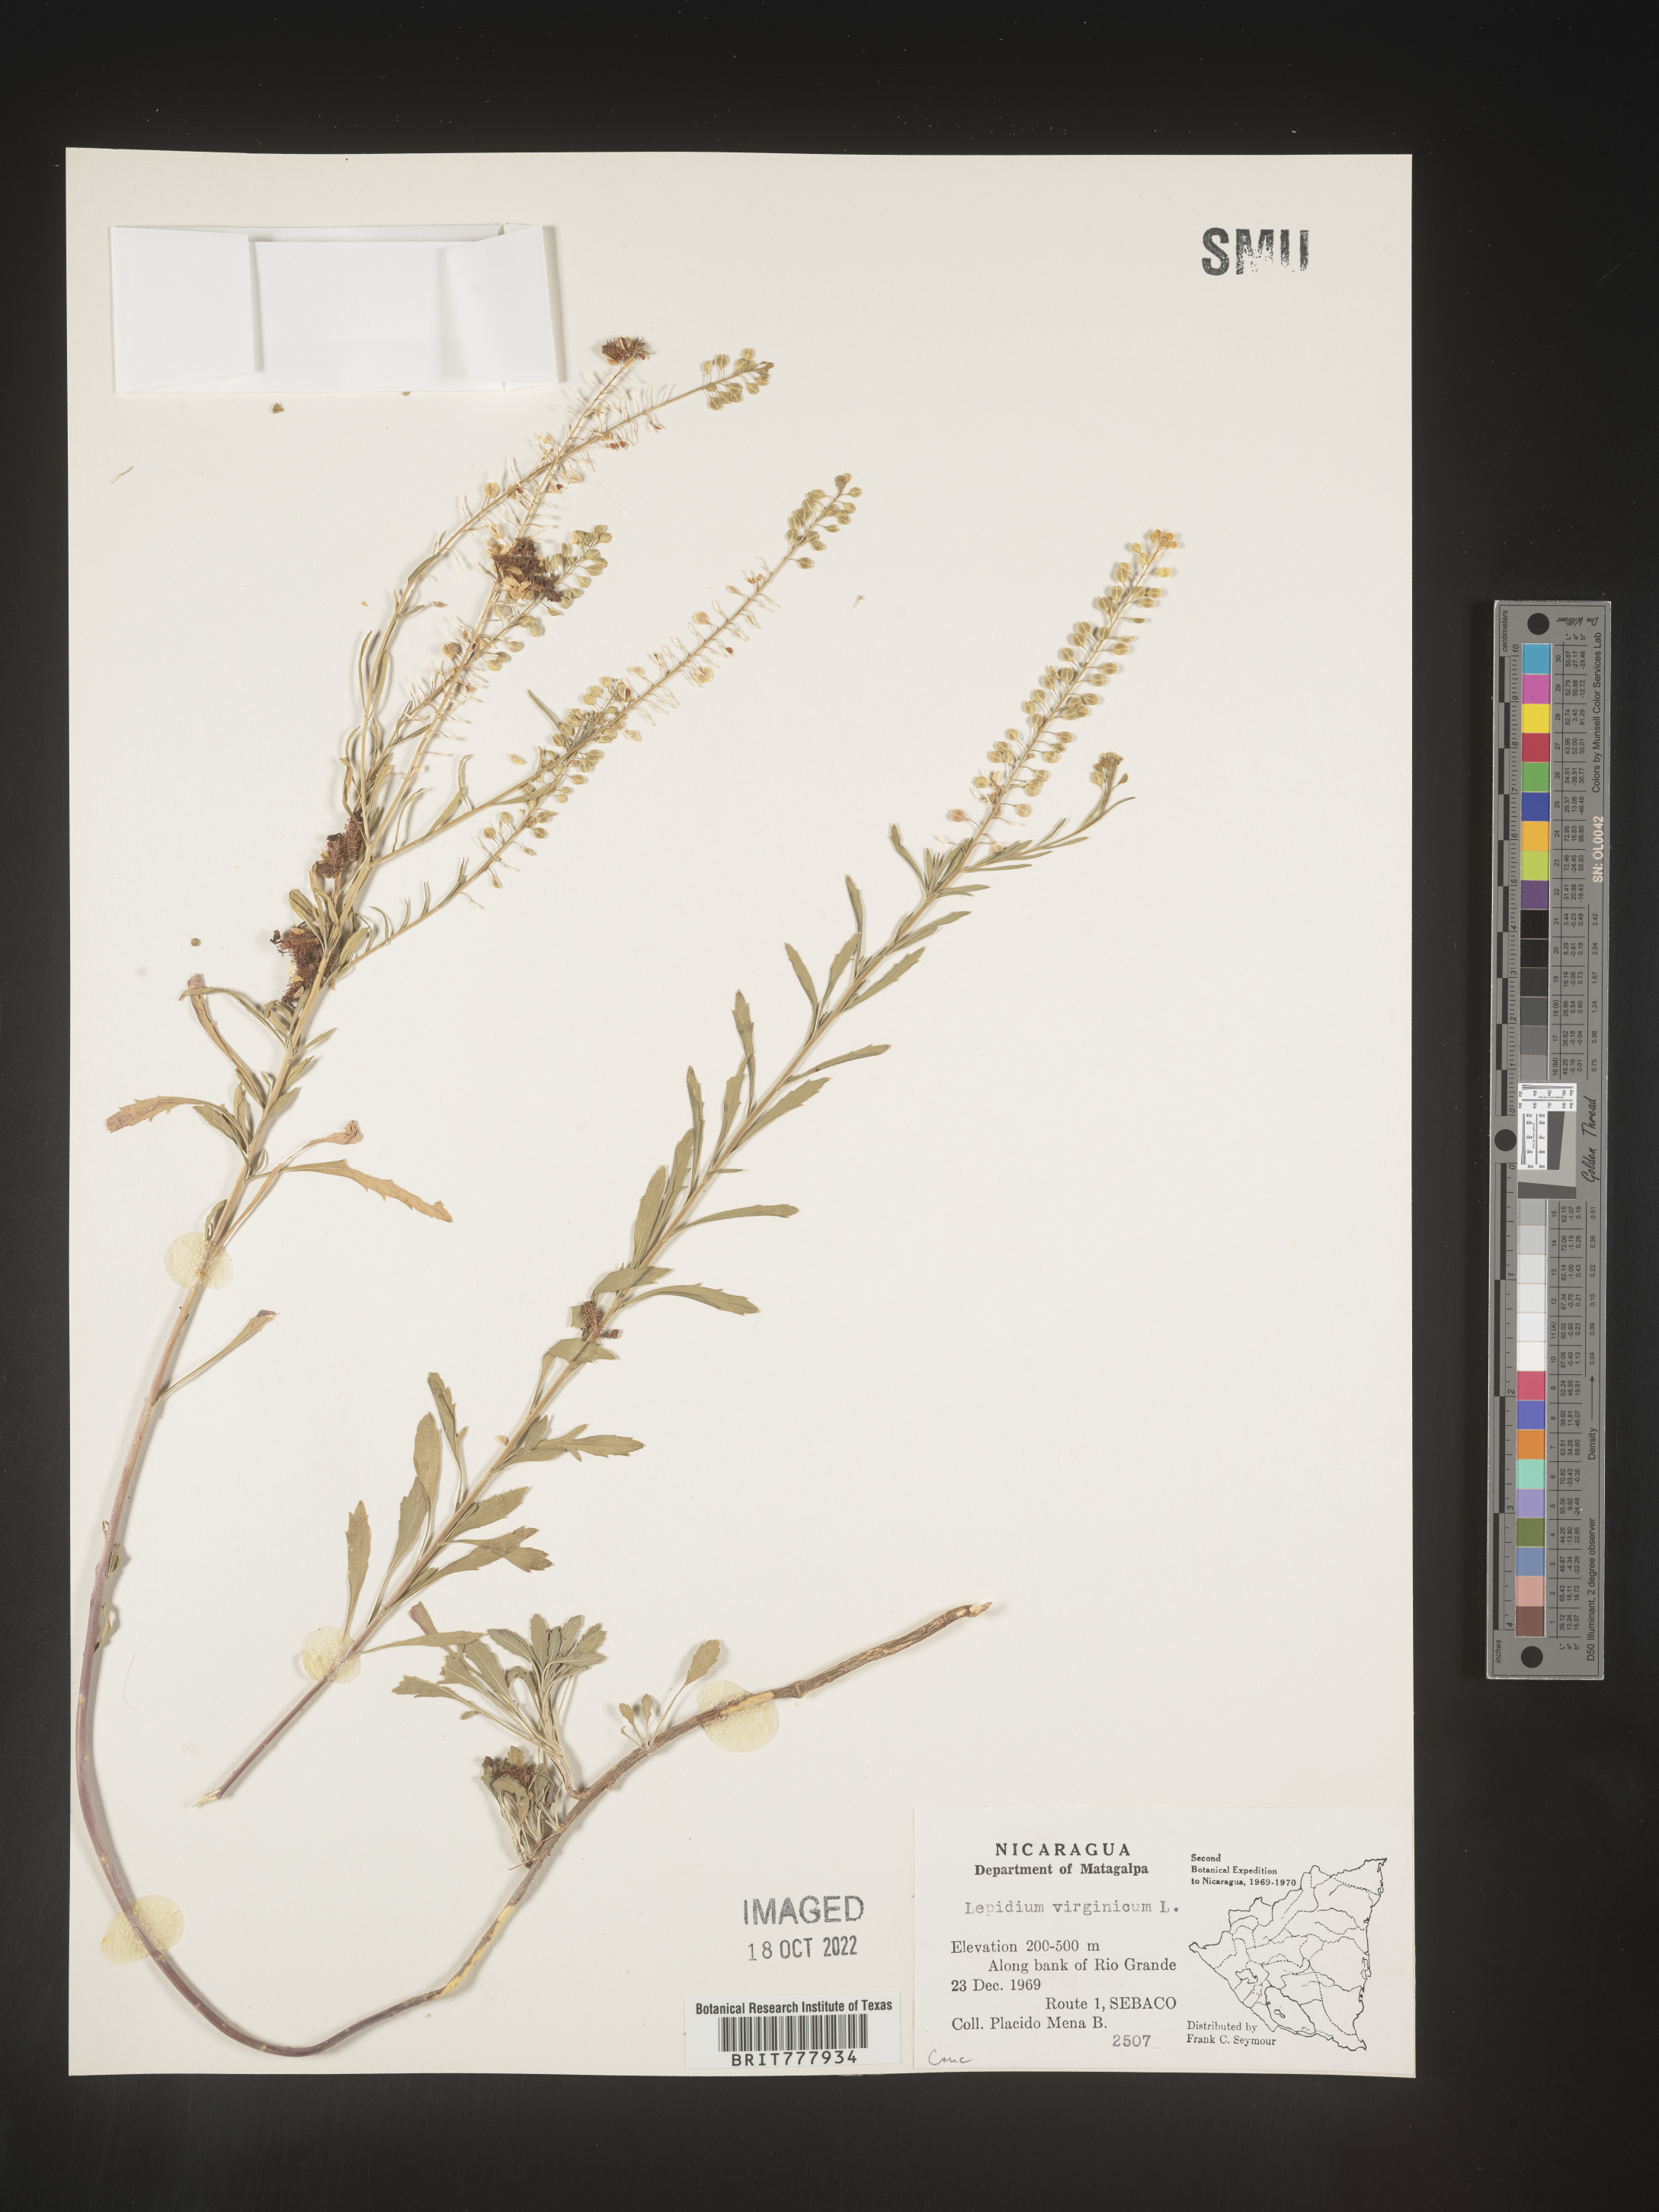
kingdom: Plantae
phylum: Tracheophyta
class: Magnoliopsida
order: Brassicales
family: Brassicaceae
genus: Lepidium
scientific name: Lepidium
